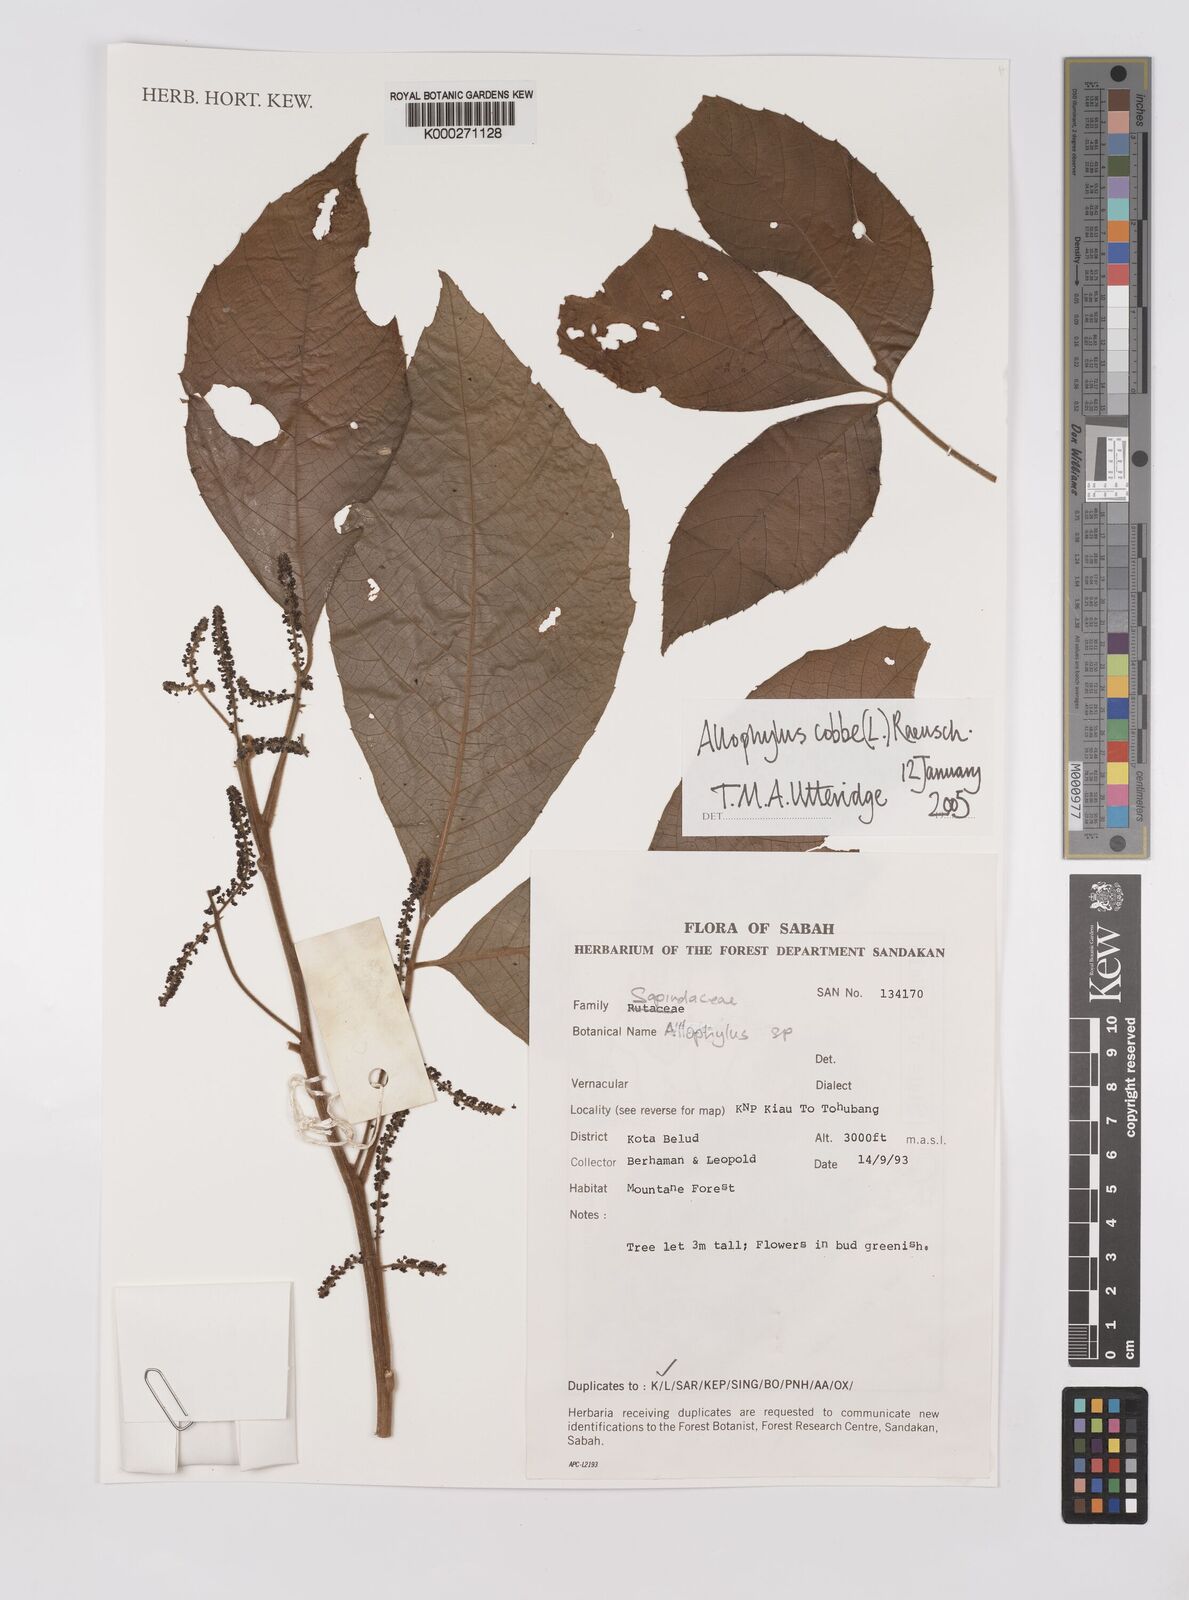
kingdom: Plantae
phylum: Tracheophyta
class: Magnoliopsida
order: Sapindales
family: Sapindaceae
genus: Allophylus
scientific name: Allophylus
